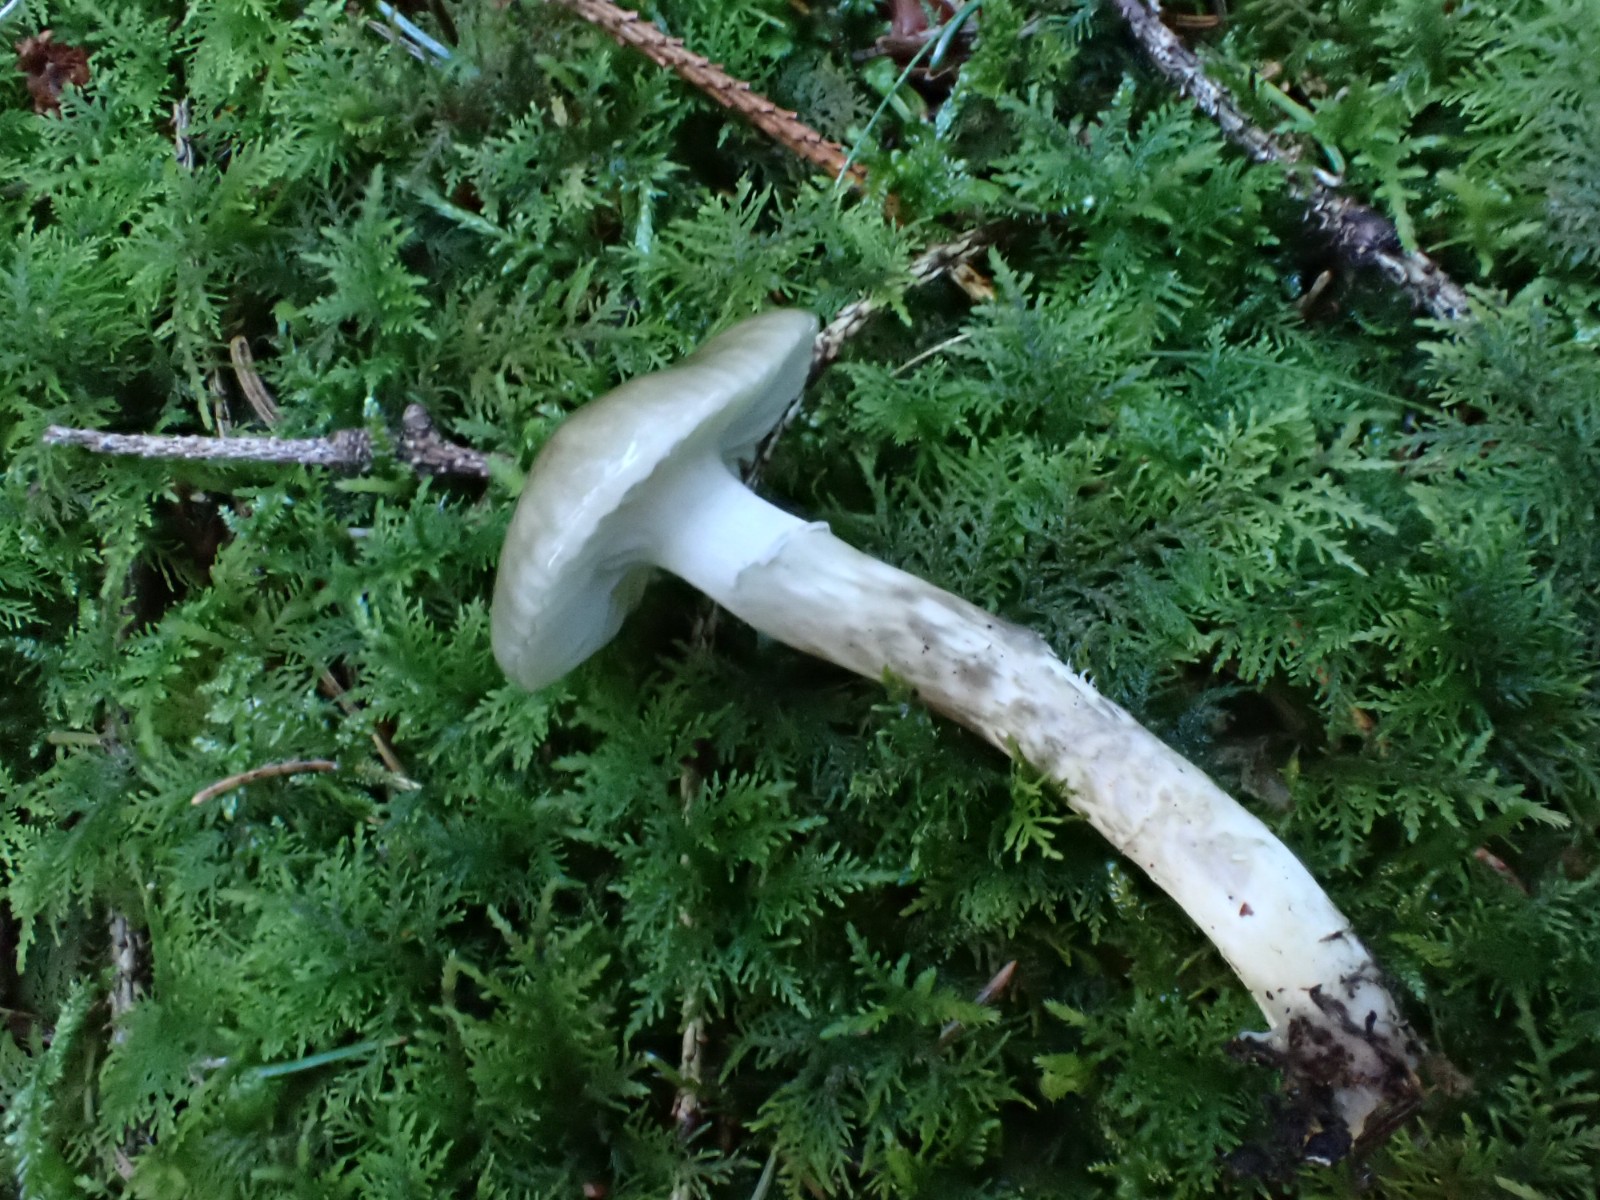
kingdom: Fungi
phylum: Basidiomycota
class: Agaricomycetes
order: Agaricales
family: Hygrophoraceae
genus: Hygrophorus
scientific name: Hygrophorus olivaceoalbus
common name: hvidbrun sneglehat
